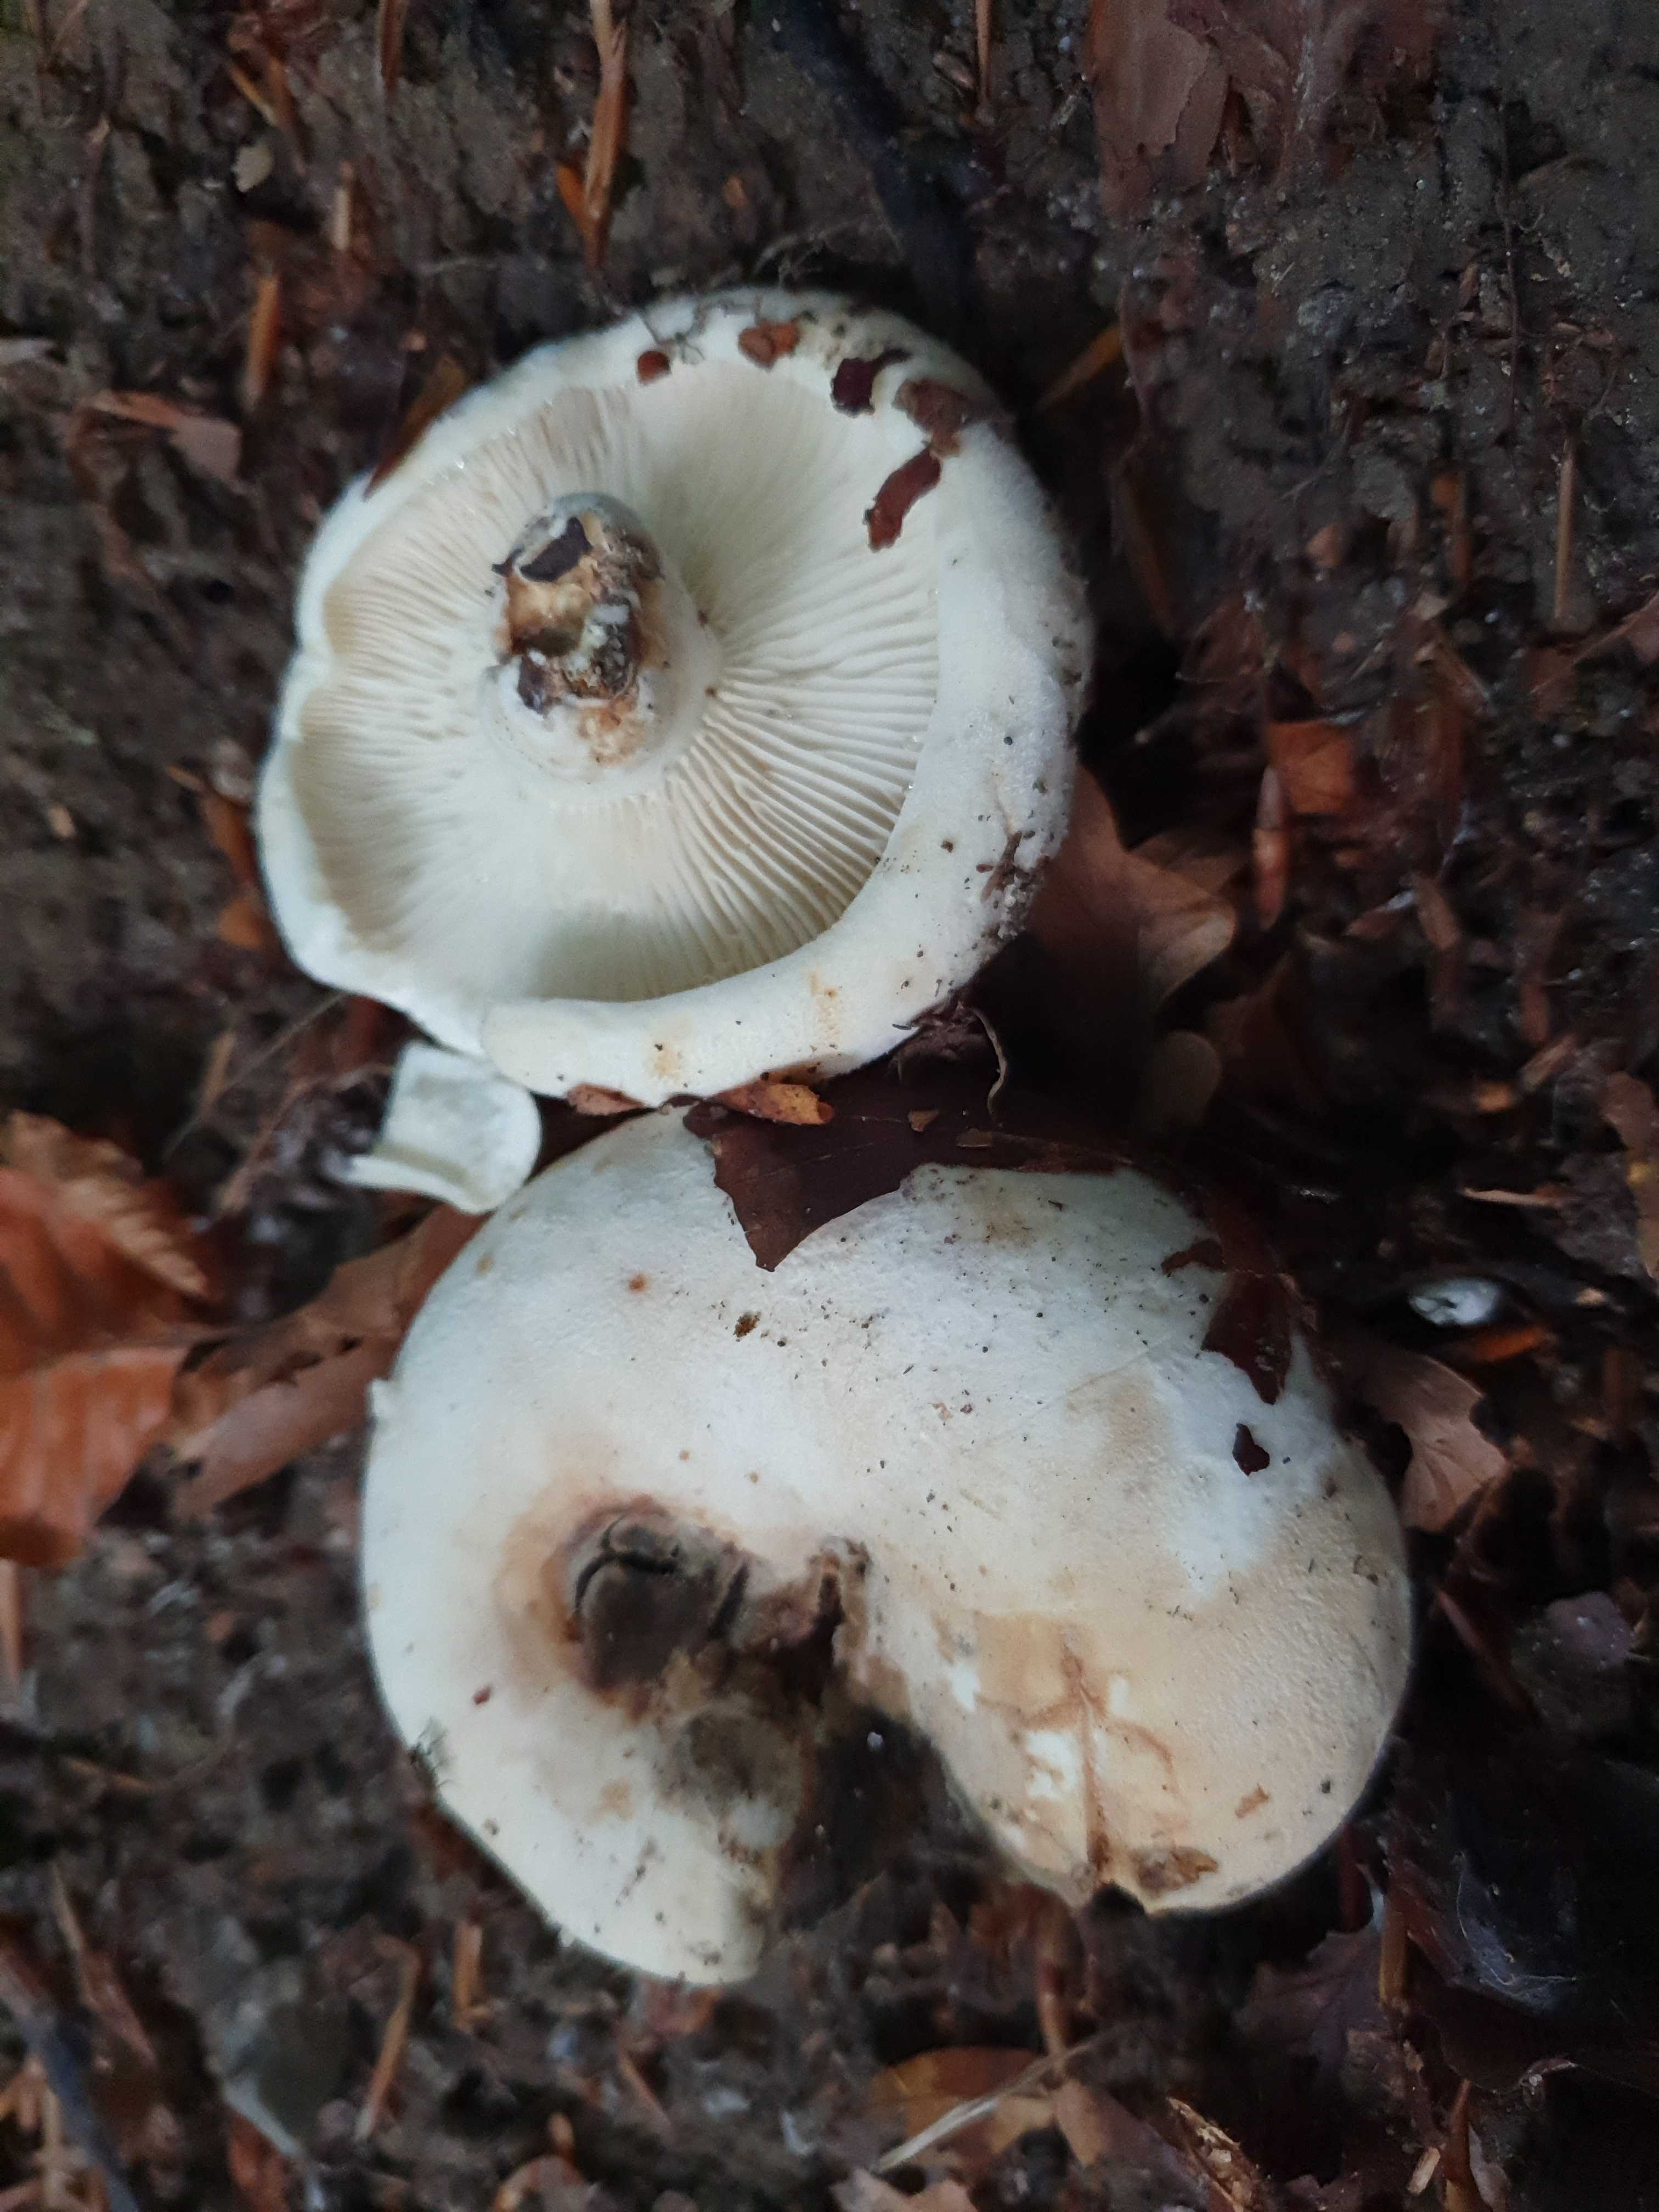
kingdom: Fungi
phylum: Basidiomycota
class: Agaricomycetes
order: Russulales
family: Russulaceae
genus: Lactifluus
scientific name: Lactifluus vellereus
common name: hvidfiltet mælkehat
